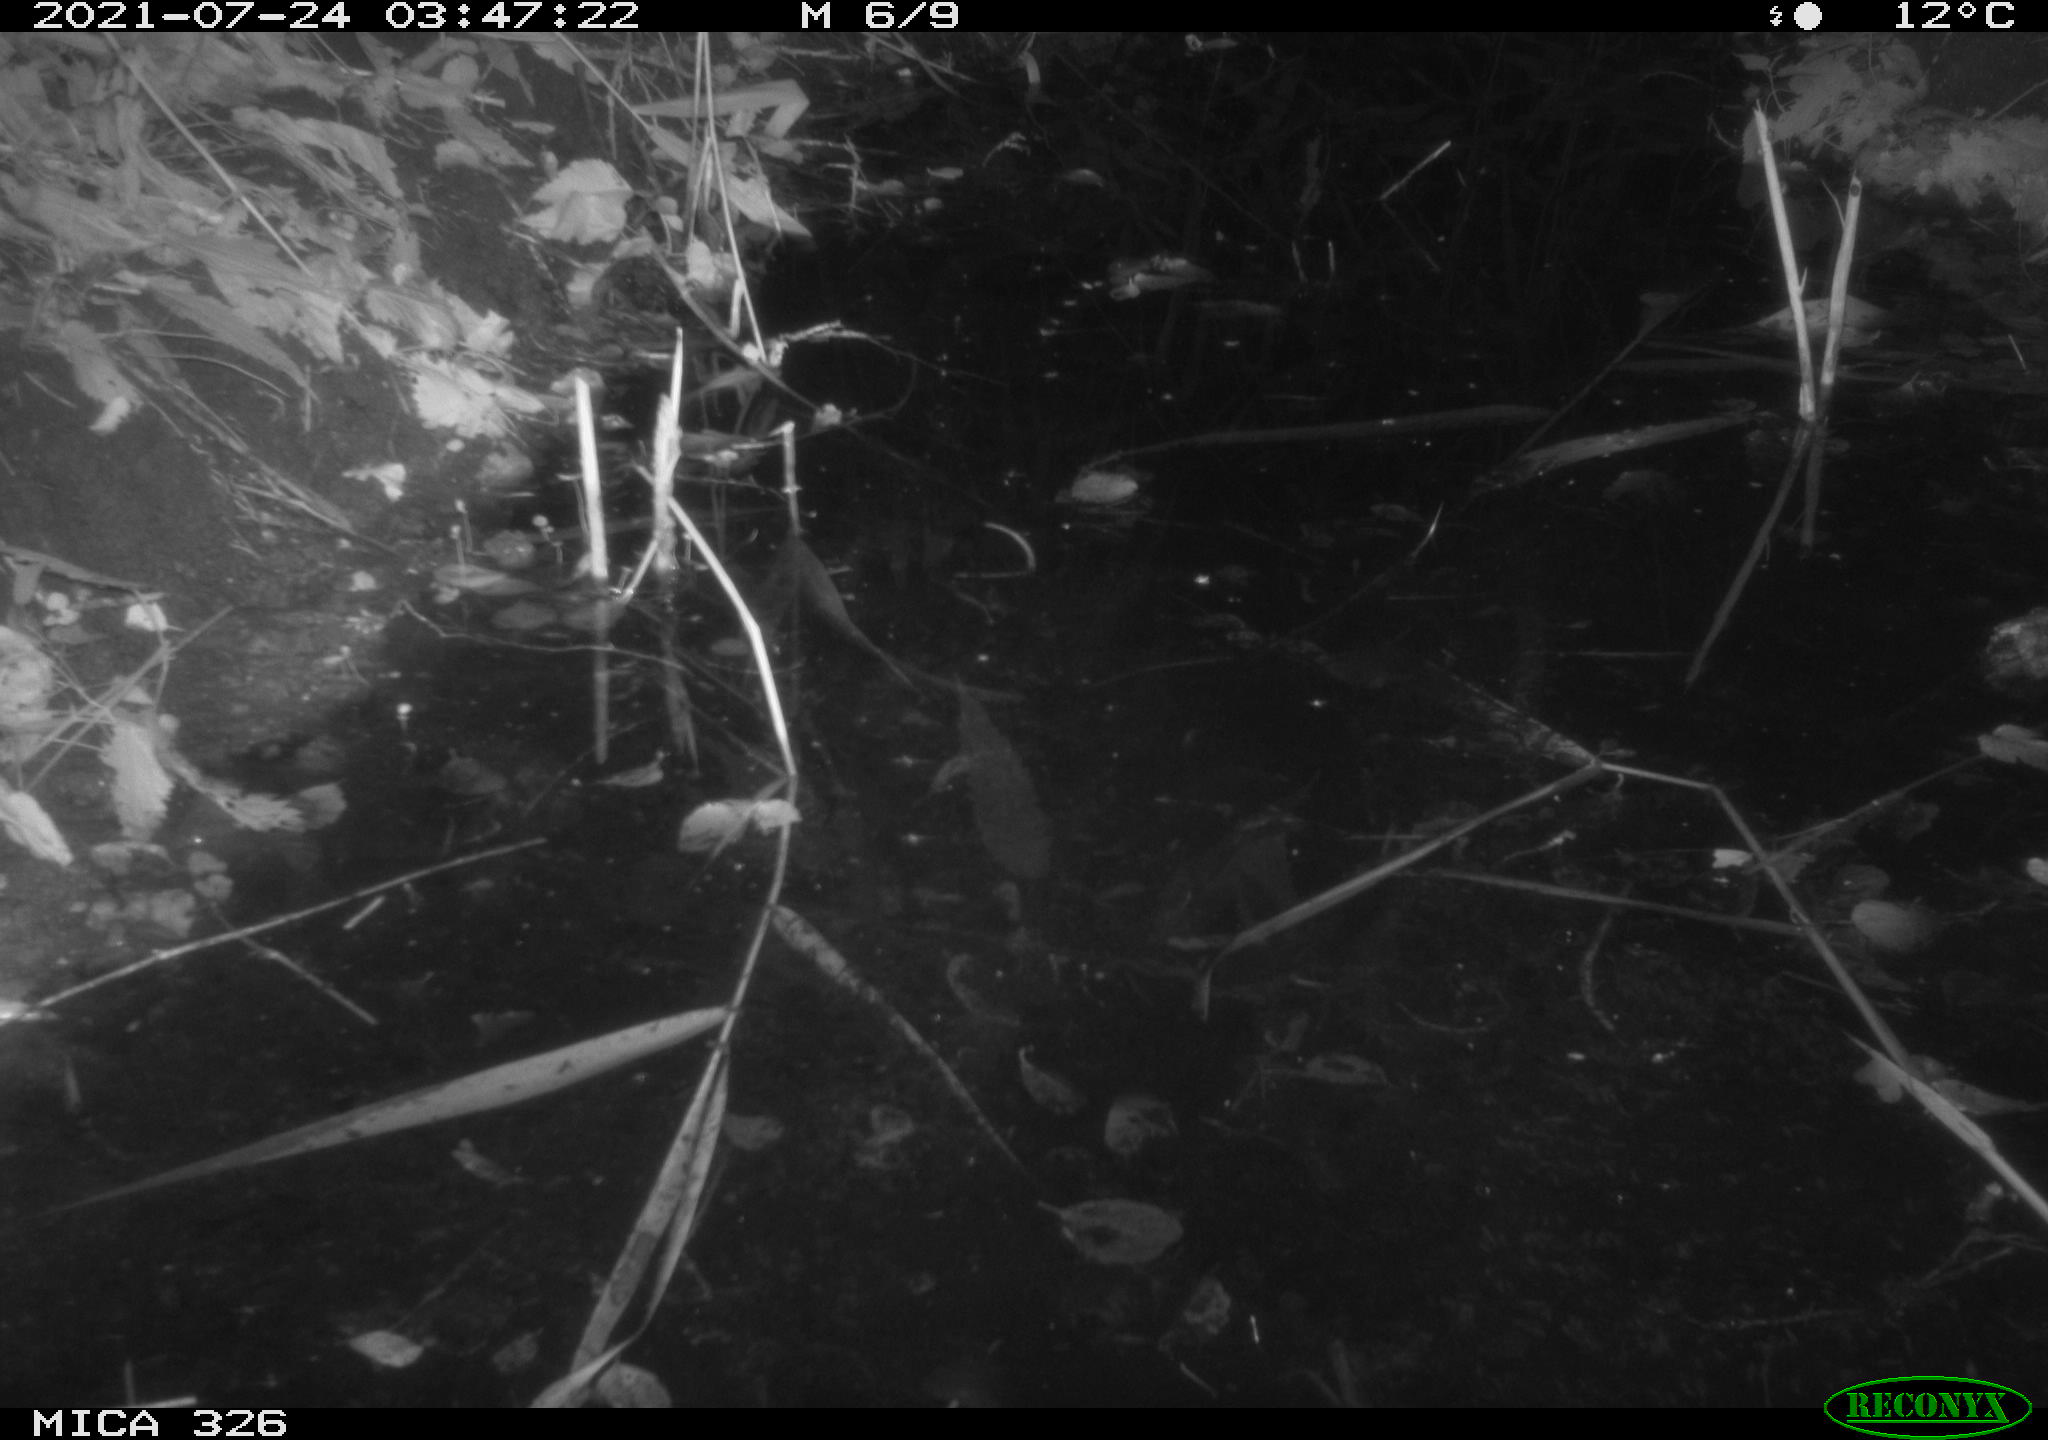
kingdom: Animalia
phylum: Chordata
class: Mammalia
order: Rodentia
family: Muridae
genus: Rattus
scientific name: Rattus norvegicus
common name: Brown rat
